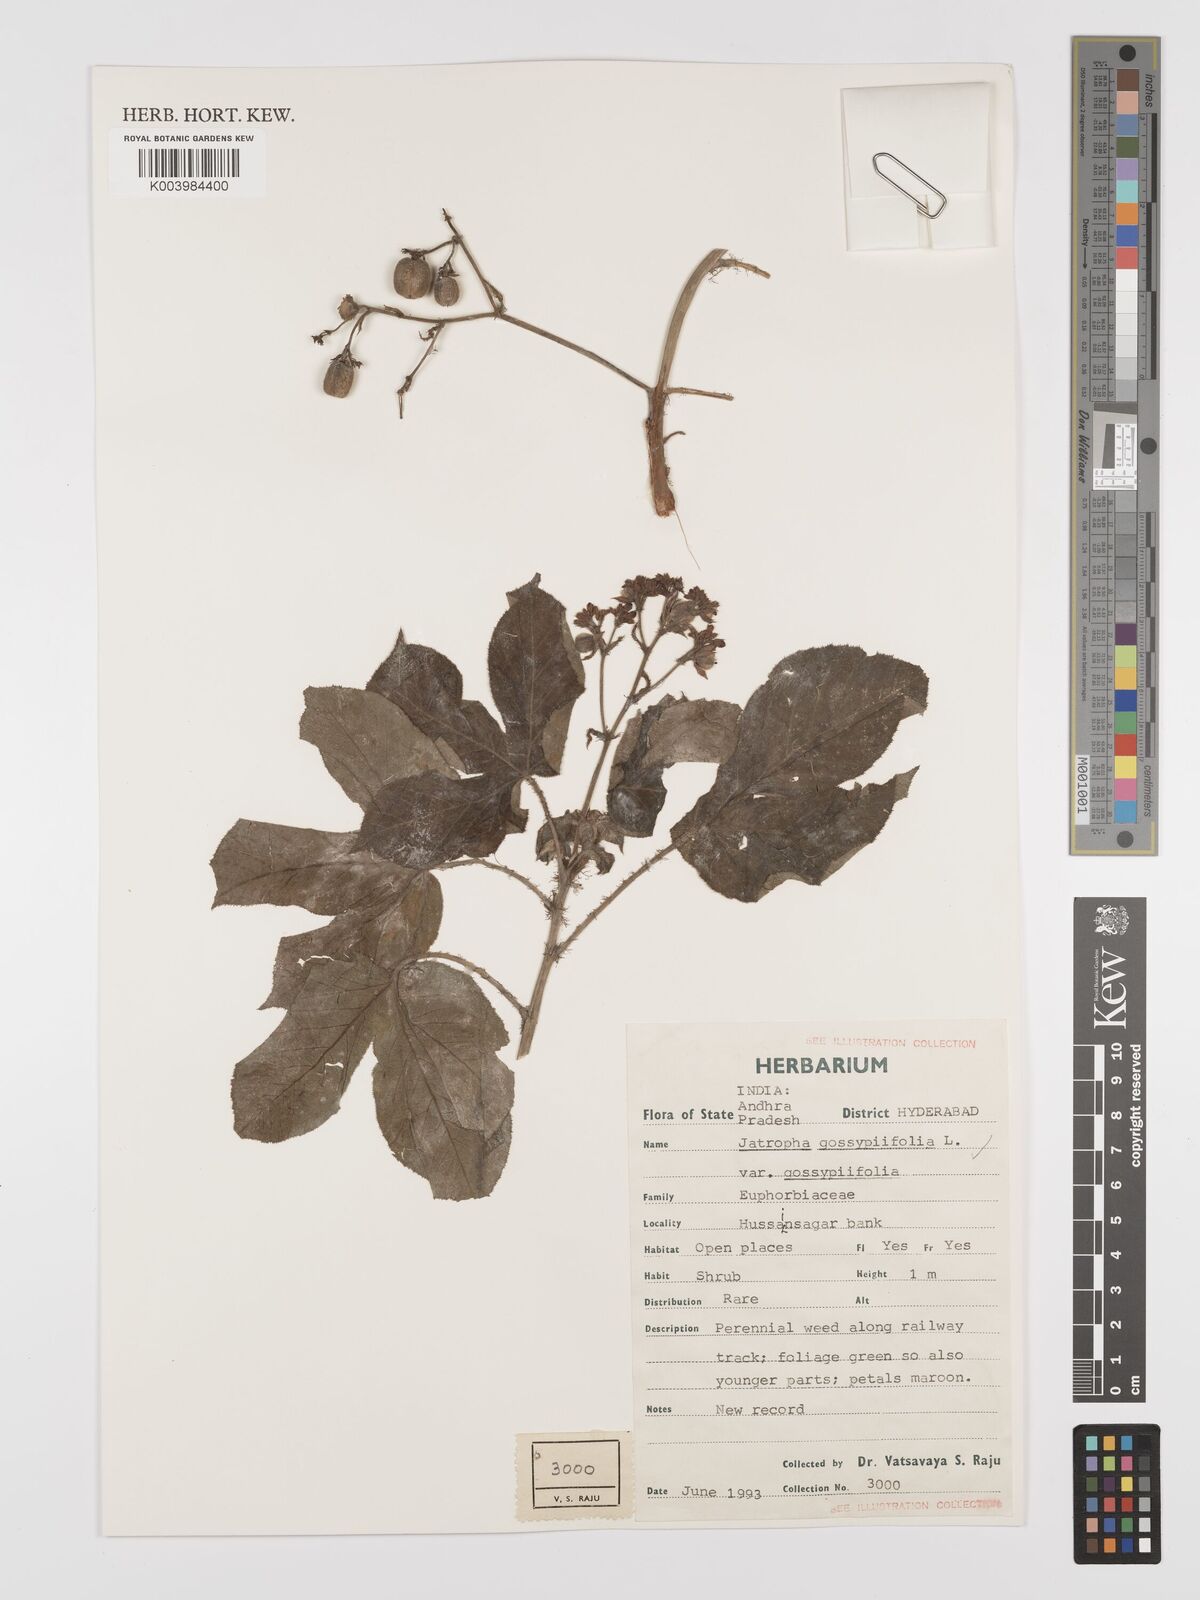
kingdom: Plantae
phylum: Tracheophyta
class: Magnoliopsida
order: Malpighiales
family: Euphorbiaceae
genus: Jatropha
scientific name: Jatropha gossypiifolia
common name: Bellyache bush
